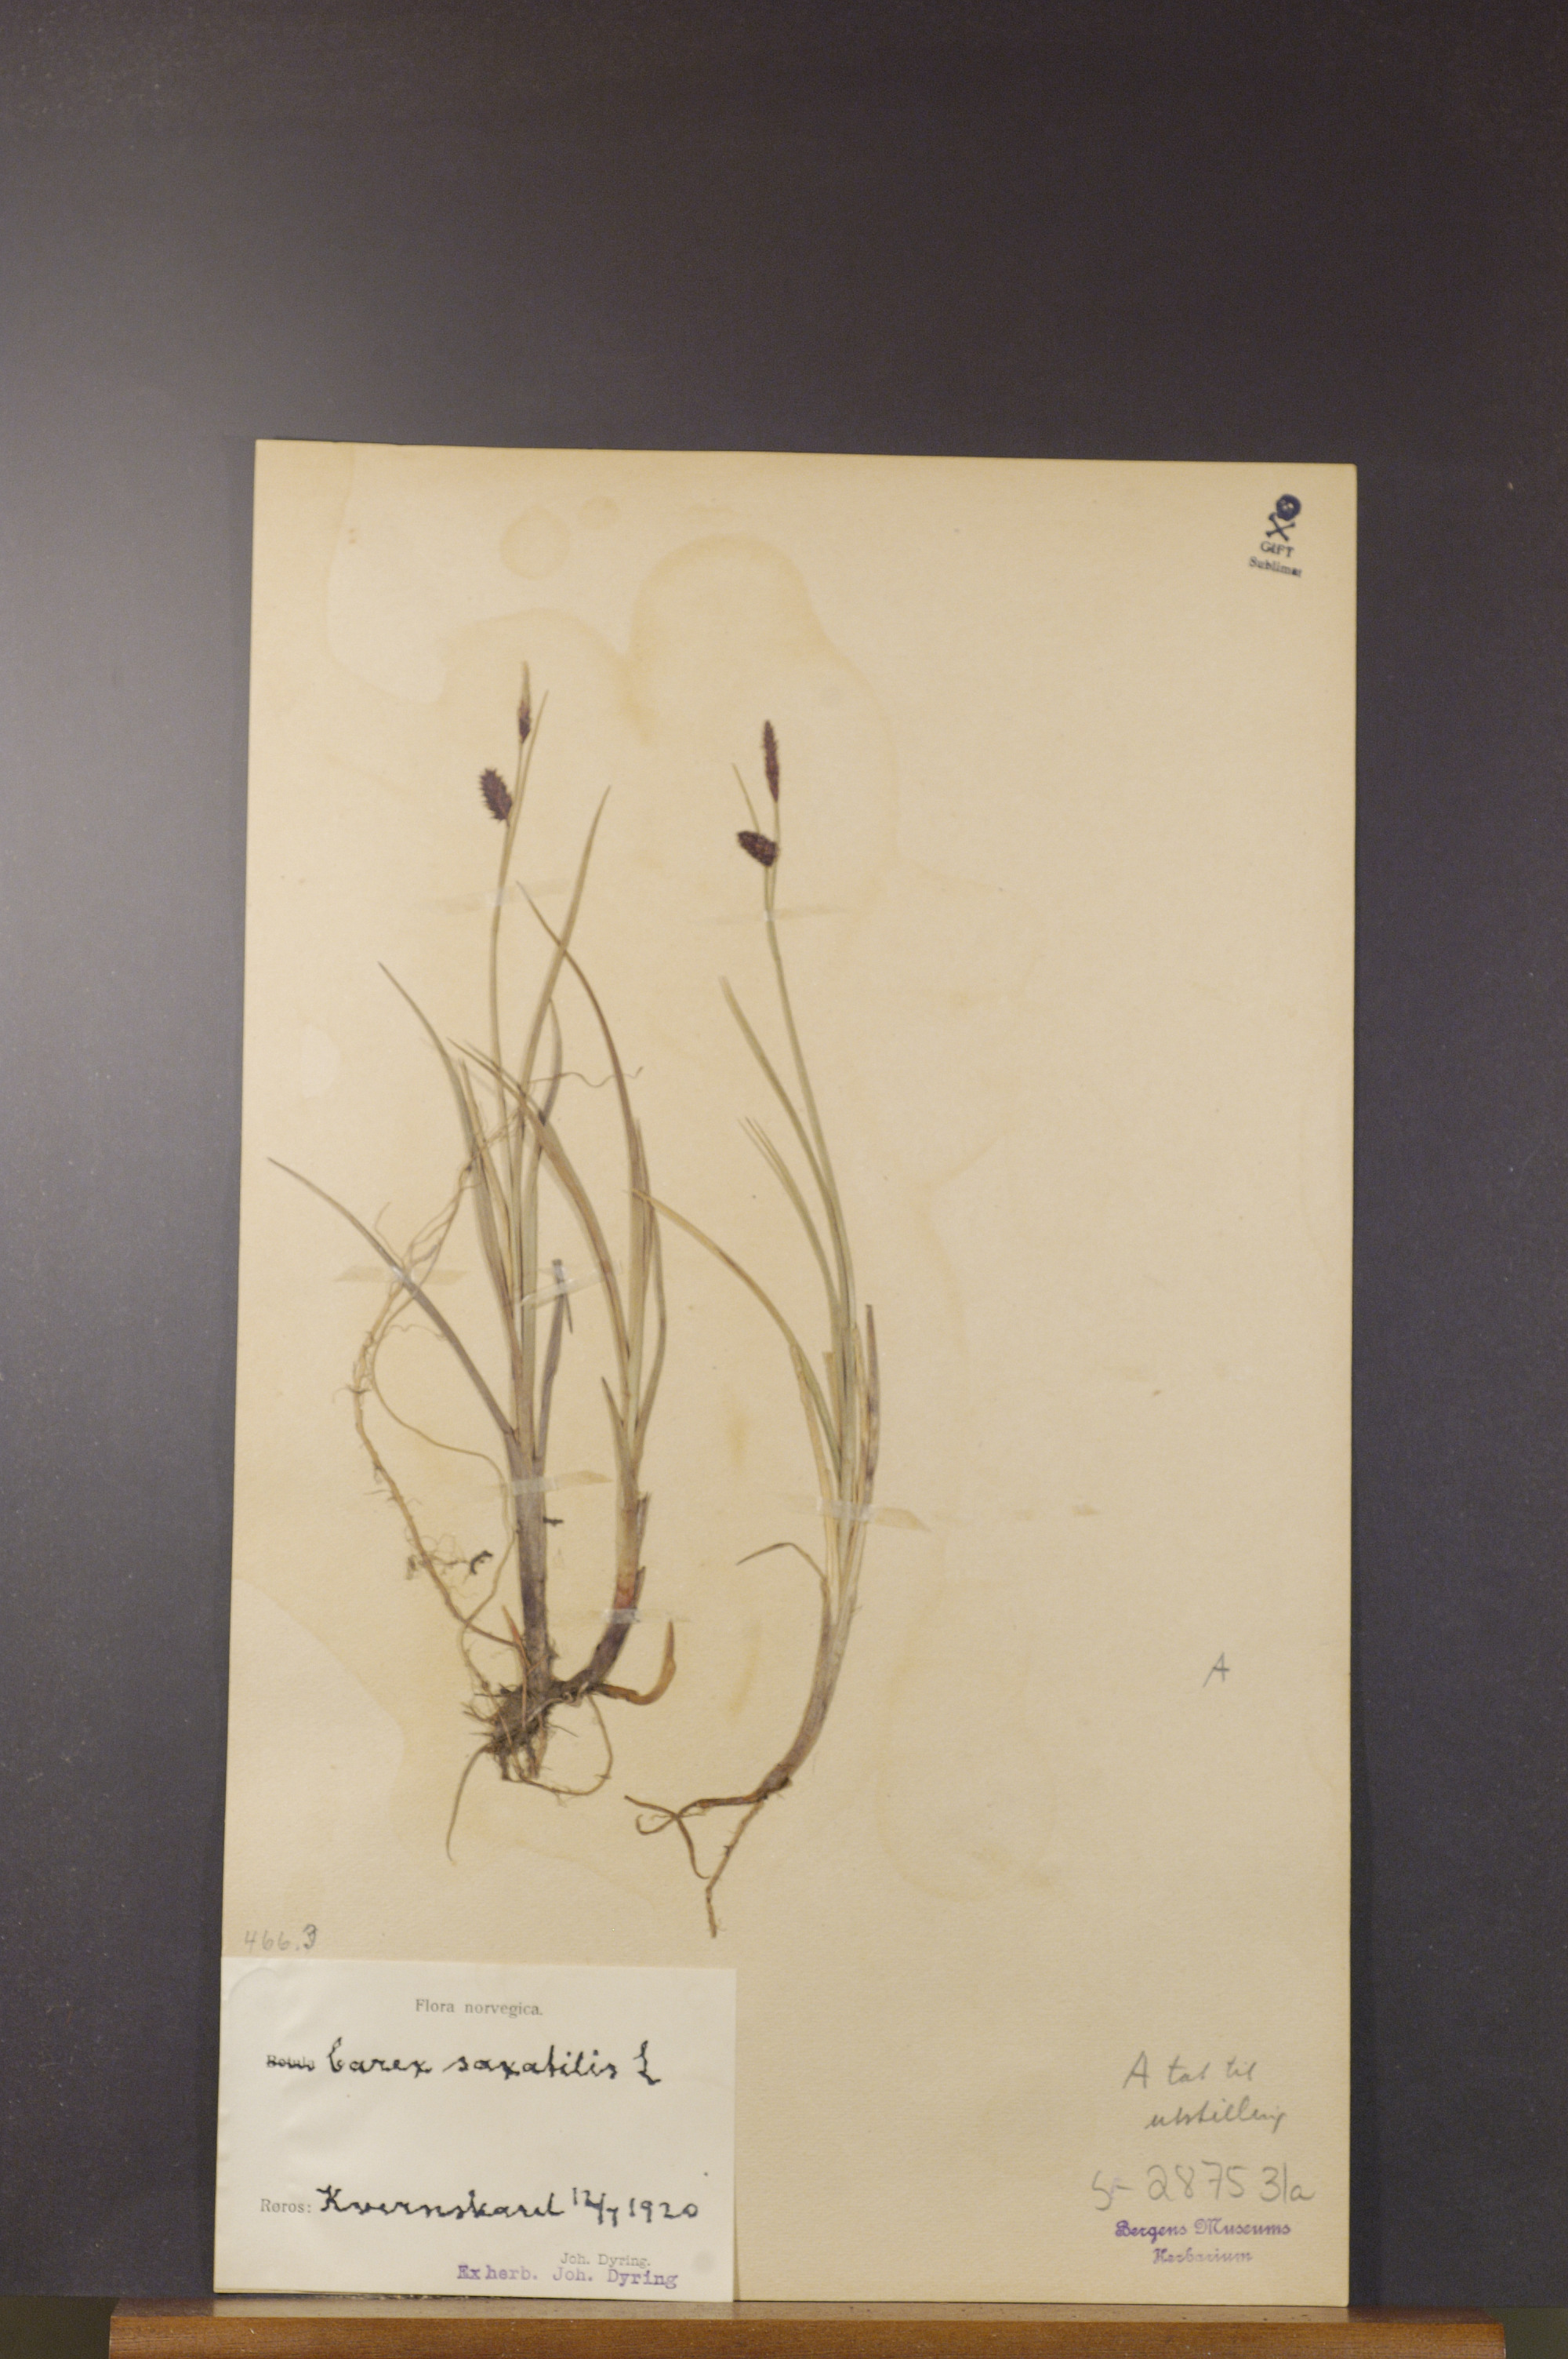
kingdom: Plantae
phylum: Tracheophyta
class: Liliopsida
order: Poales
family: Cyperaceae
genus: Carex
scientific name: Carex saxatilis
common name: Russet sedge
